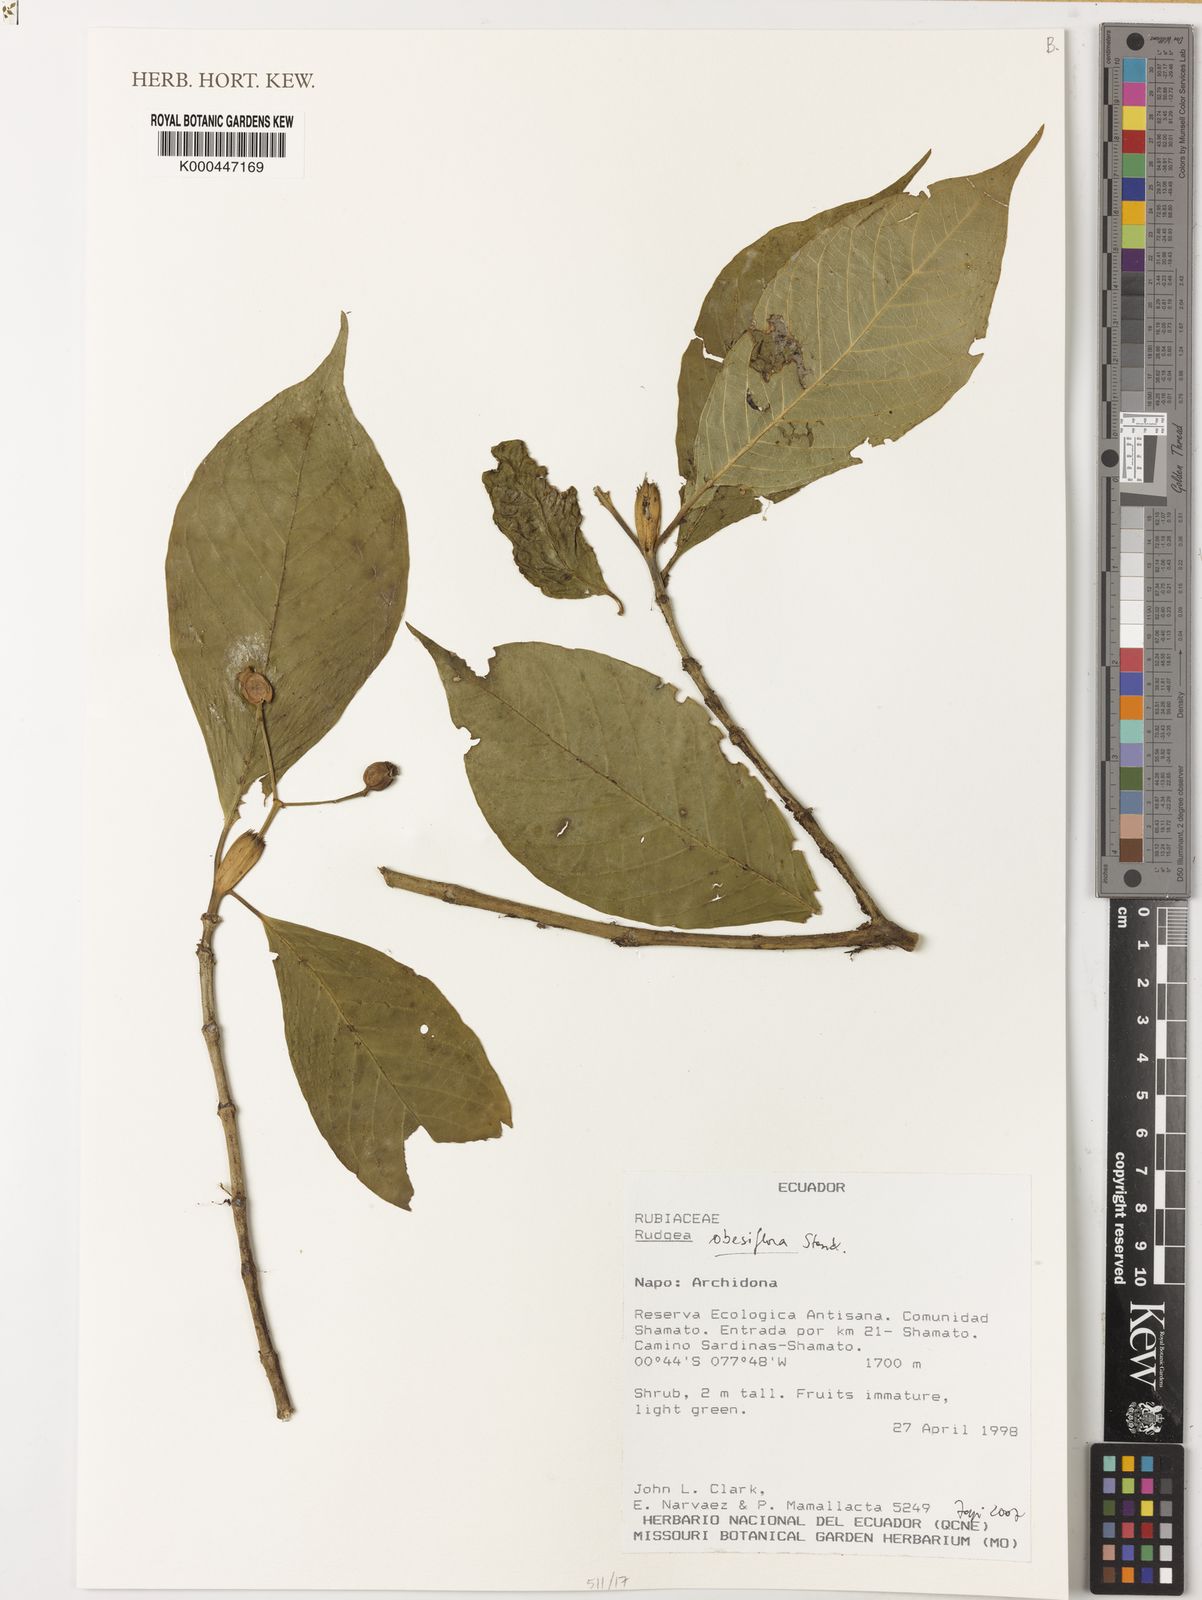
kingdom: Plantae
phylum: Tracheophyta
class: Magnoliopsida
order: Gentianales
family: Rubiaceae
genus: Rudgea
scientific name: Rudgea obesiflora
